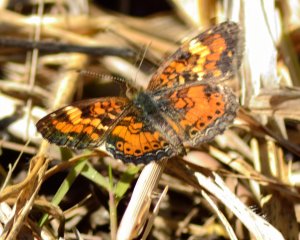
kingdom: Animalia
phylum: Arthropoda
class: Insecta
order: Lepidoptera
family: Nymphalidae
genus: Phyciodes
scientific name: Phyciodes phaon
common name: Phaon Crescent
